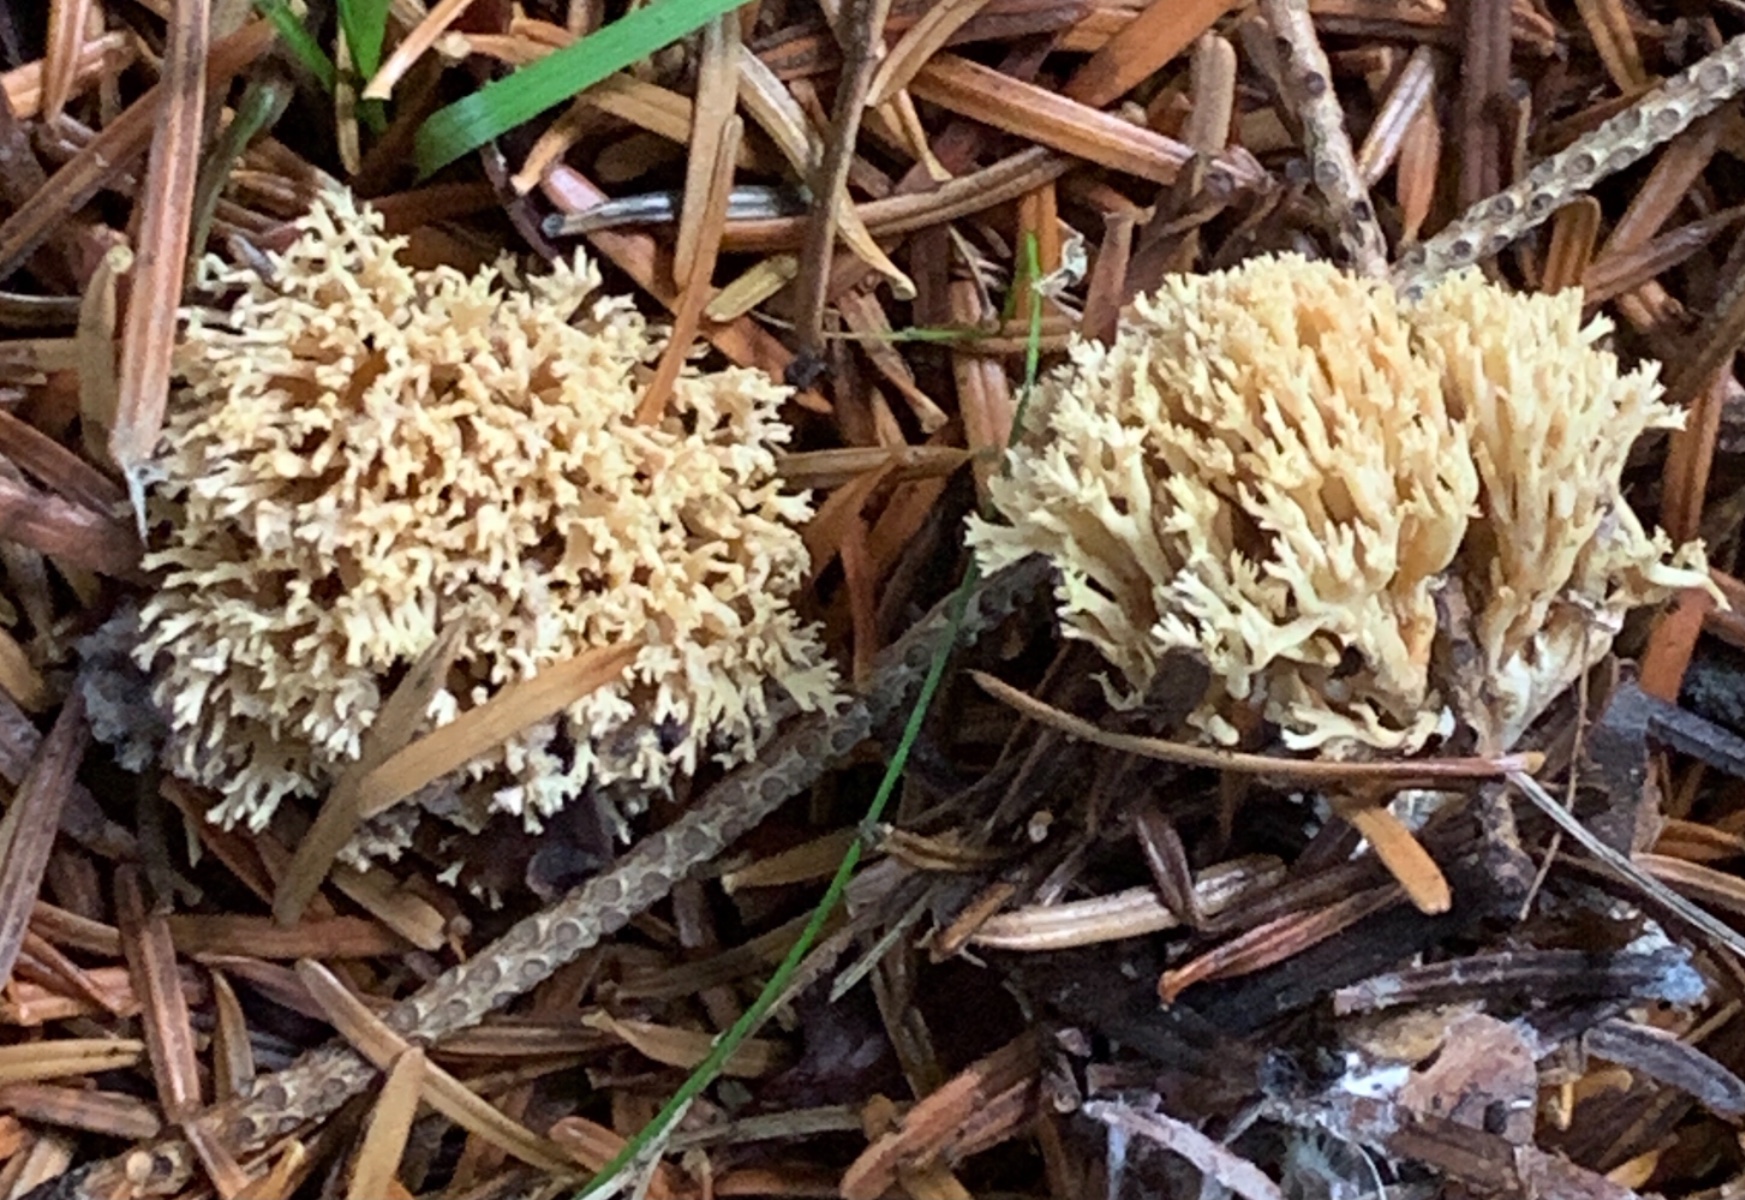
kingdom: Fungi
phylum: Basidiomycota
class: Agaricomycetes
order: Gomphales
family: Gomphaceae
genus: Phaeoclavulina
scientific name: Phaeoclavulina eumorpha
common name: gran-koralsvamp
